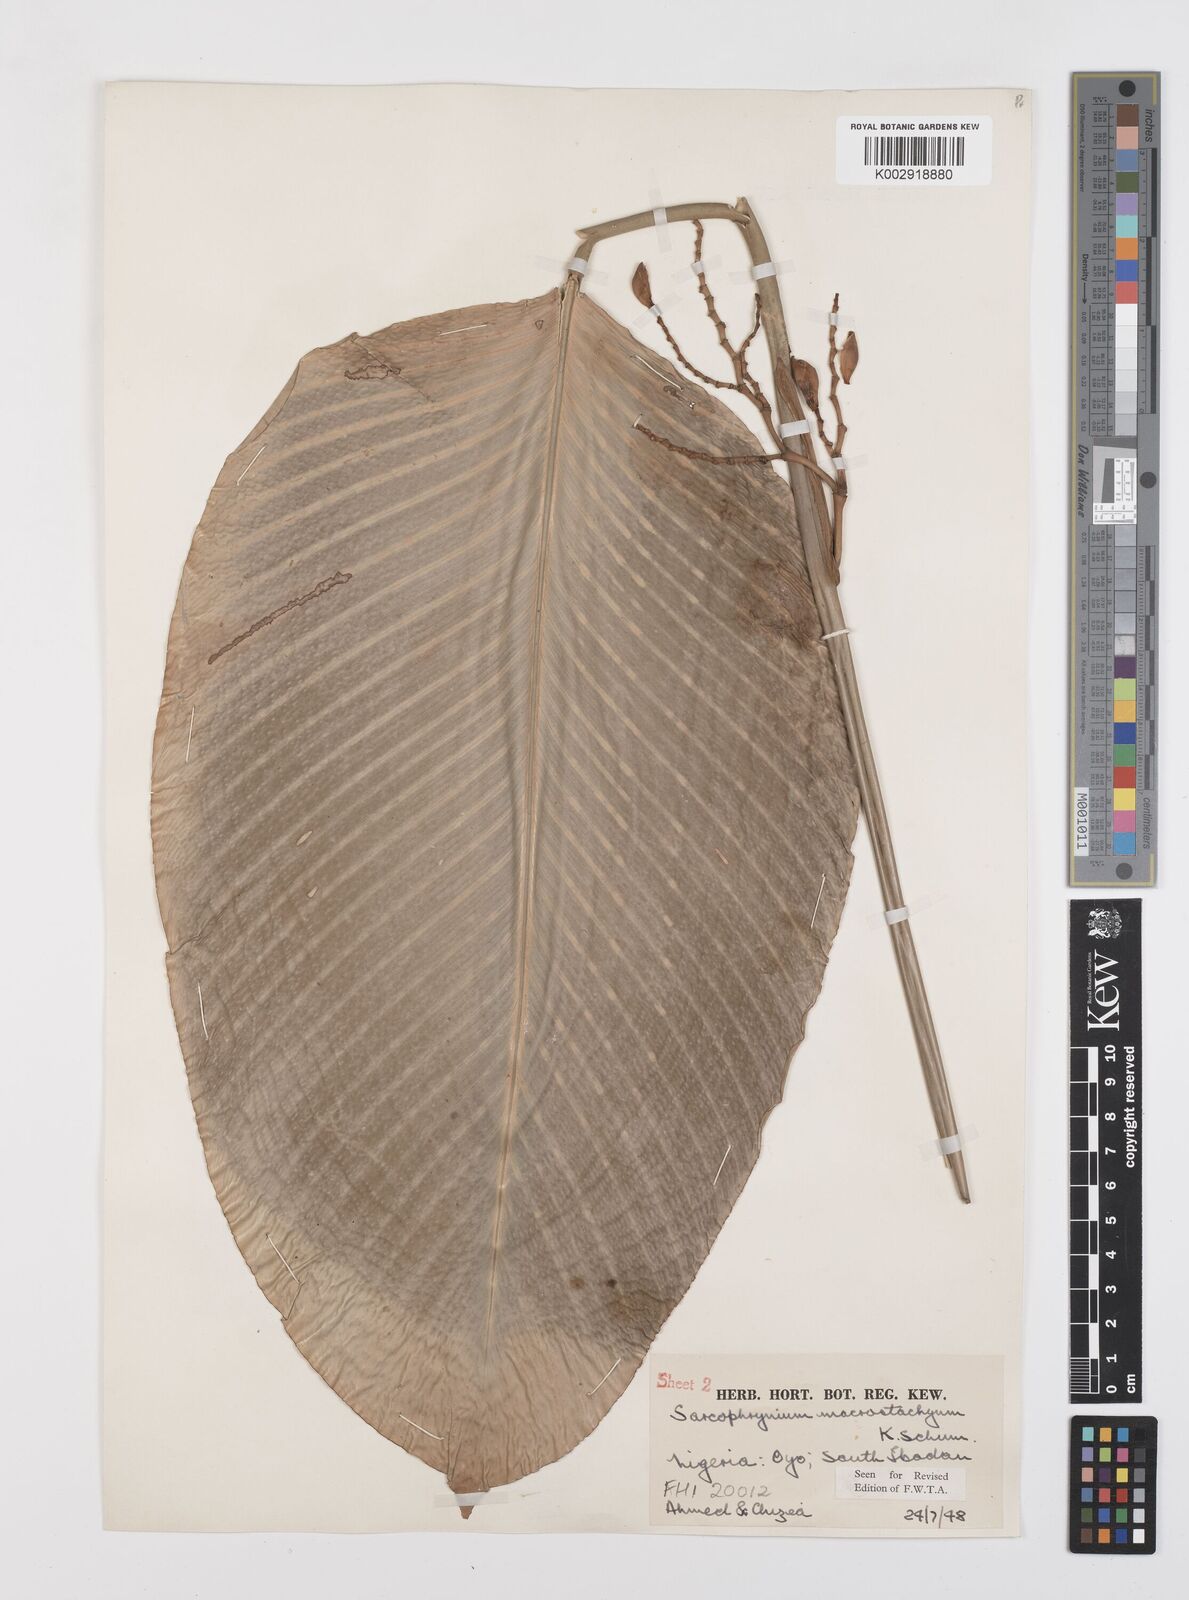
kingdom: Plantae
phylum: Tracheophyta
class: Liliopsida
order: Zingiberales
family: Marantaceae
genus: Megaphrynium
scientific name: Megaphrynium macrostachyum
